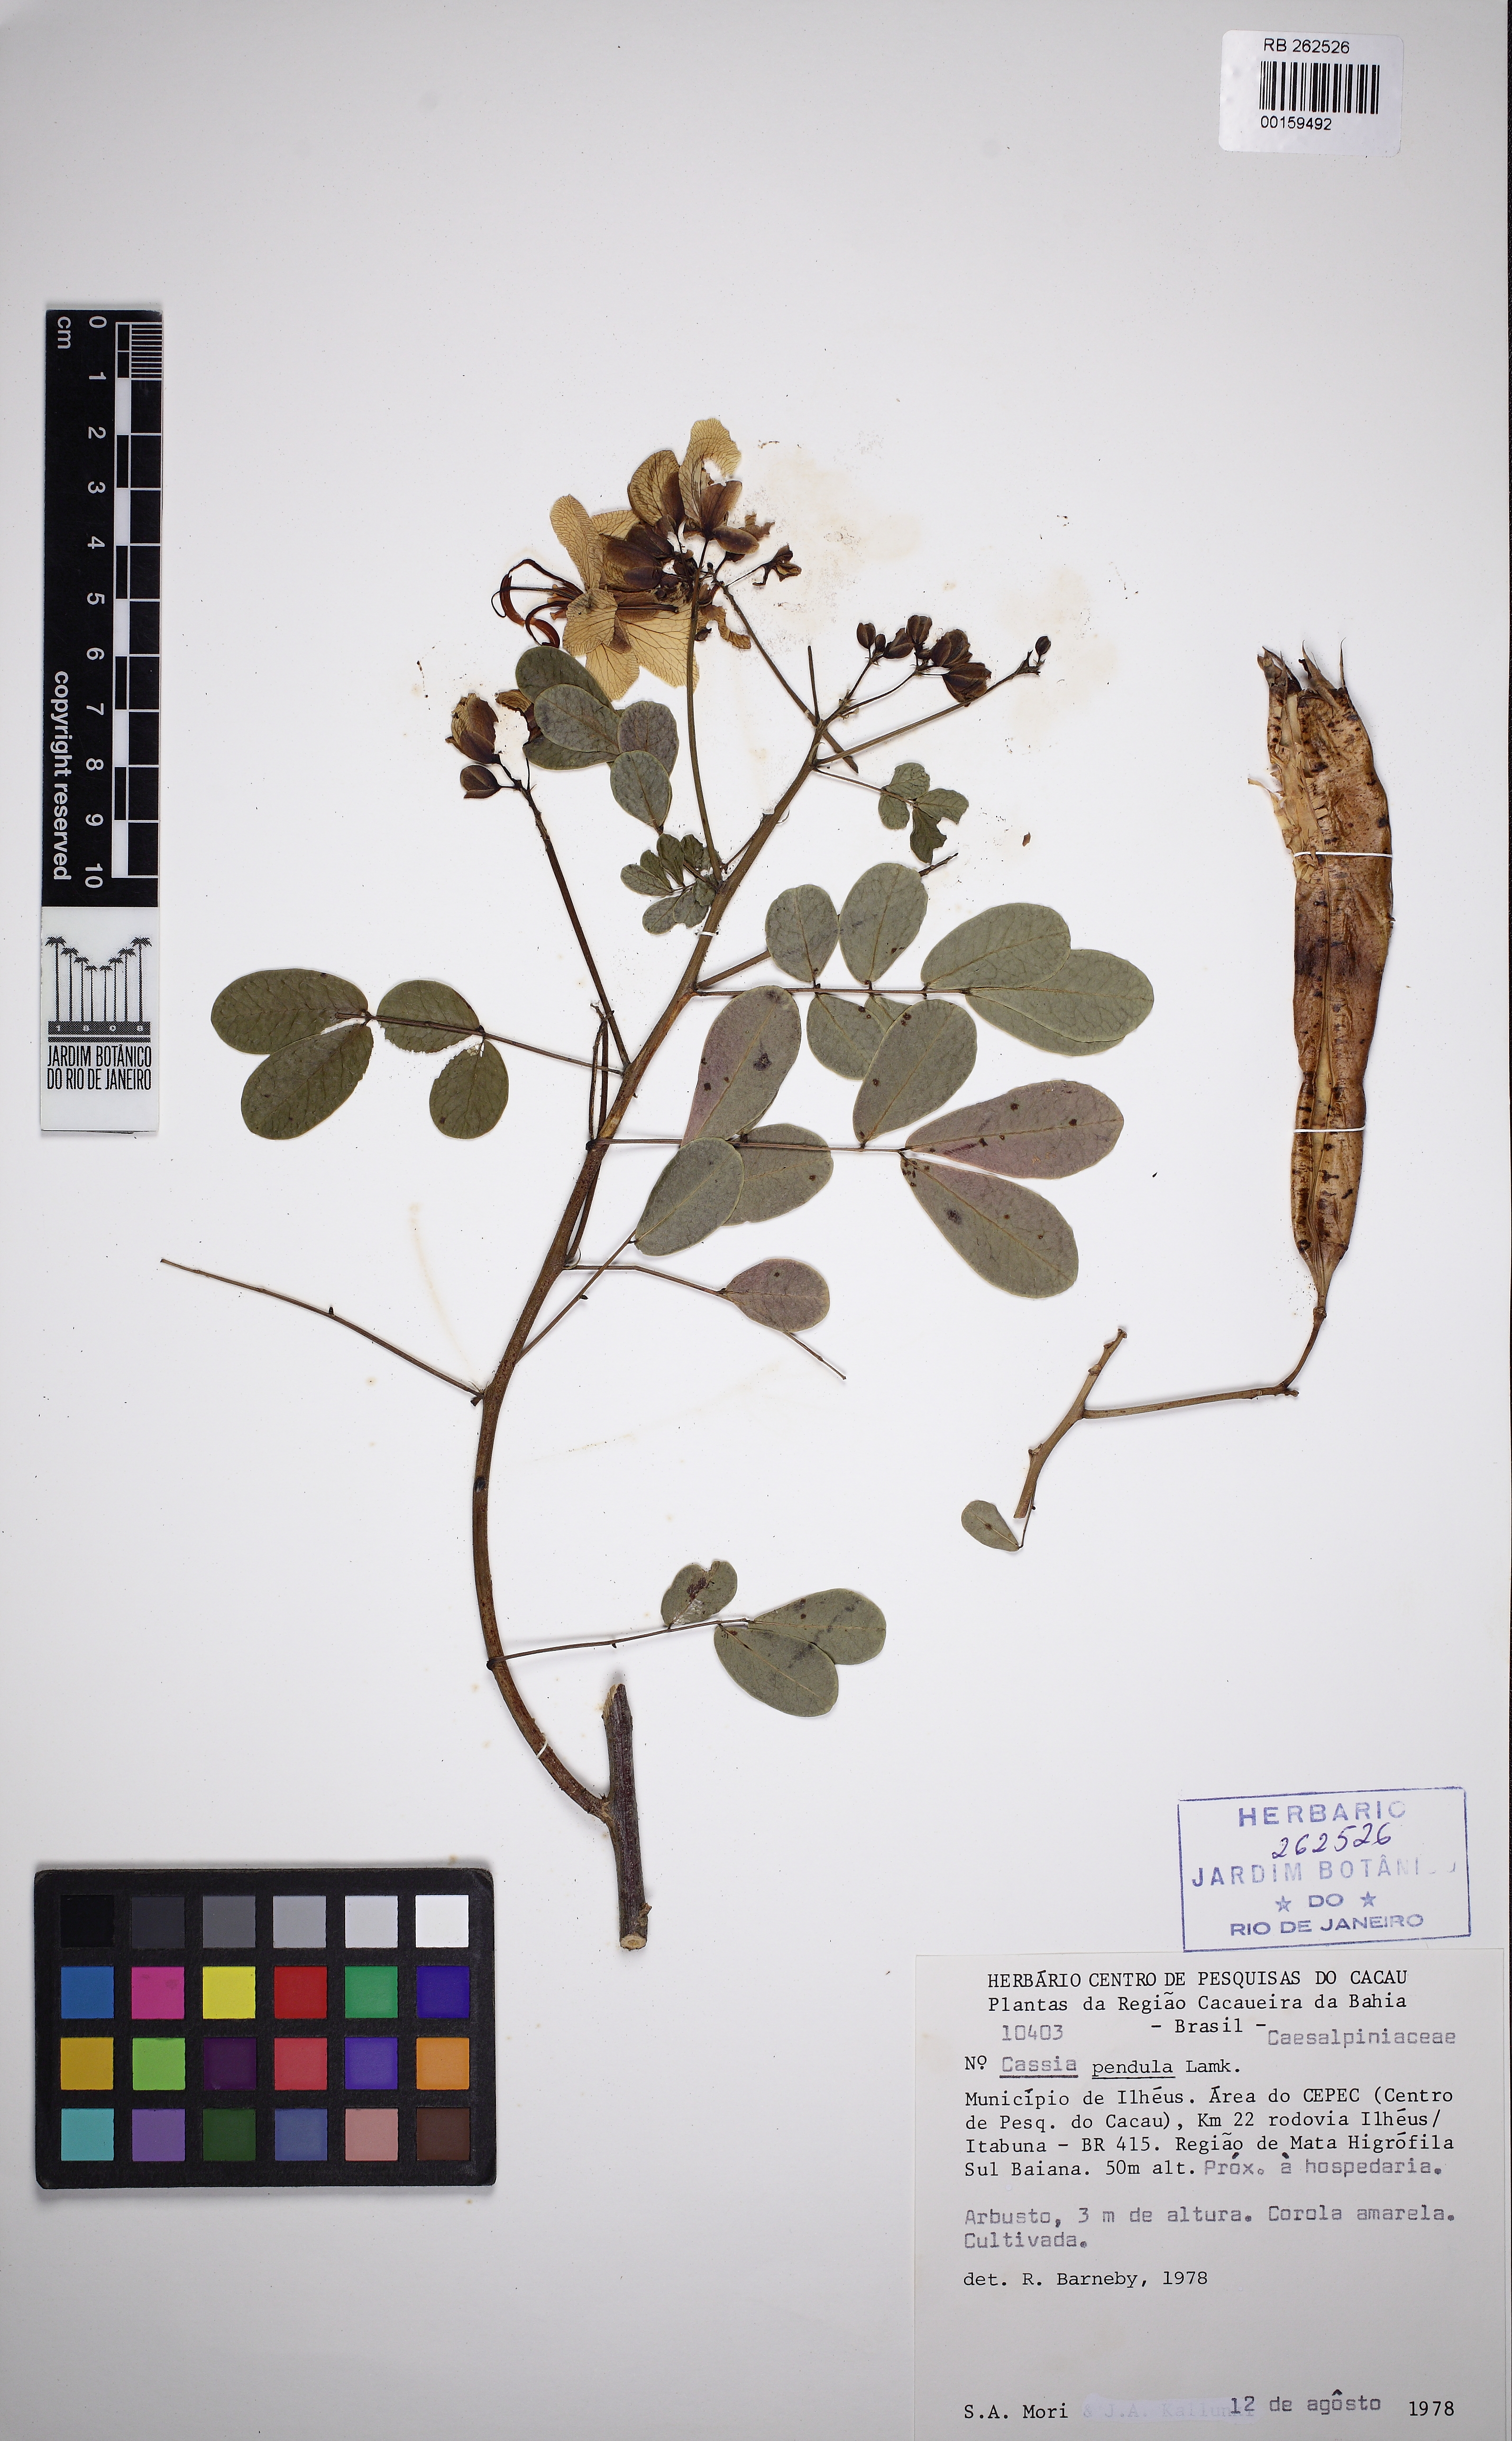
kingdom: Plantae
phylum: Tracheophyta
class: Magnoliopsida
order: Fabales
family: Fabaceae
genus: Senna
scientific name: Senna pendula
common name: Easter cassia
